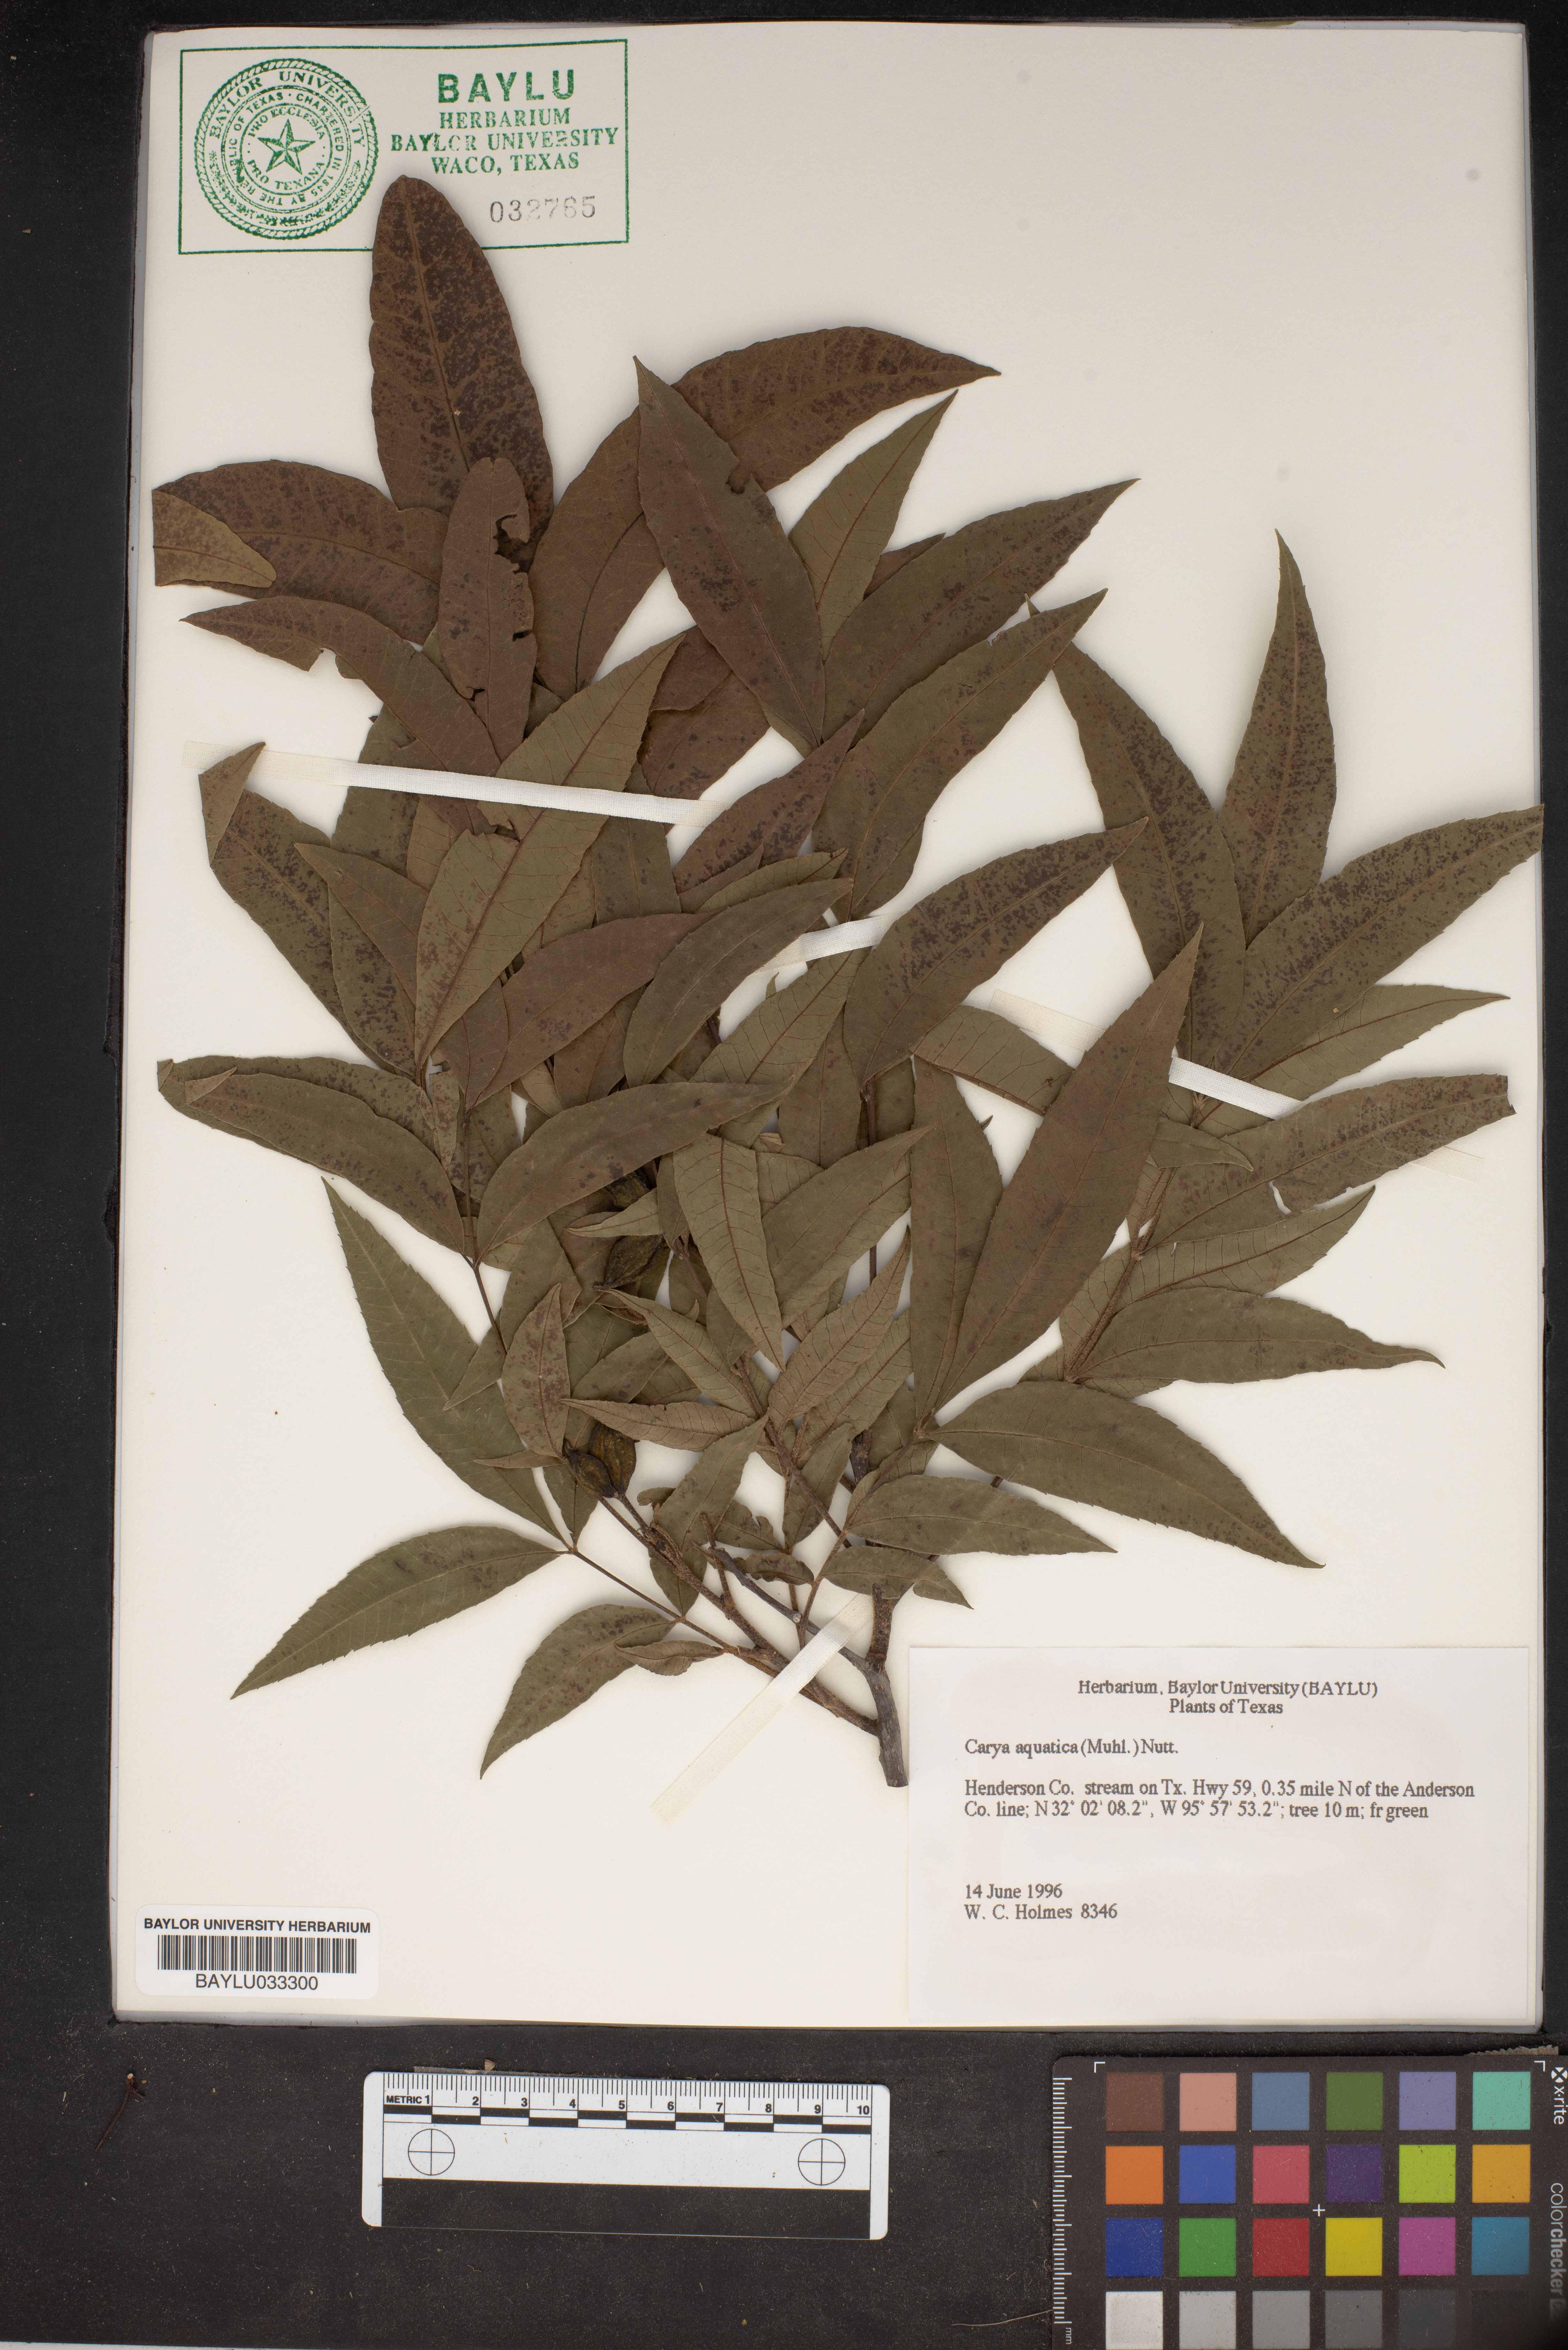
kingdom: Plantae
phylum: Tracheophyta
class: Magnoliopsida
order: Fagales
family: Juglandaceae
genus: Carya
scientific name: Carya aquatica
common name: Water hickory
